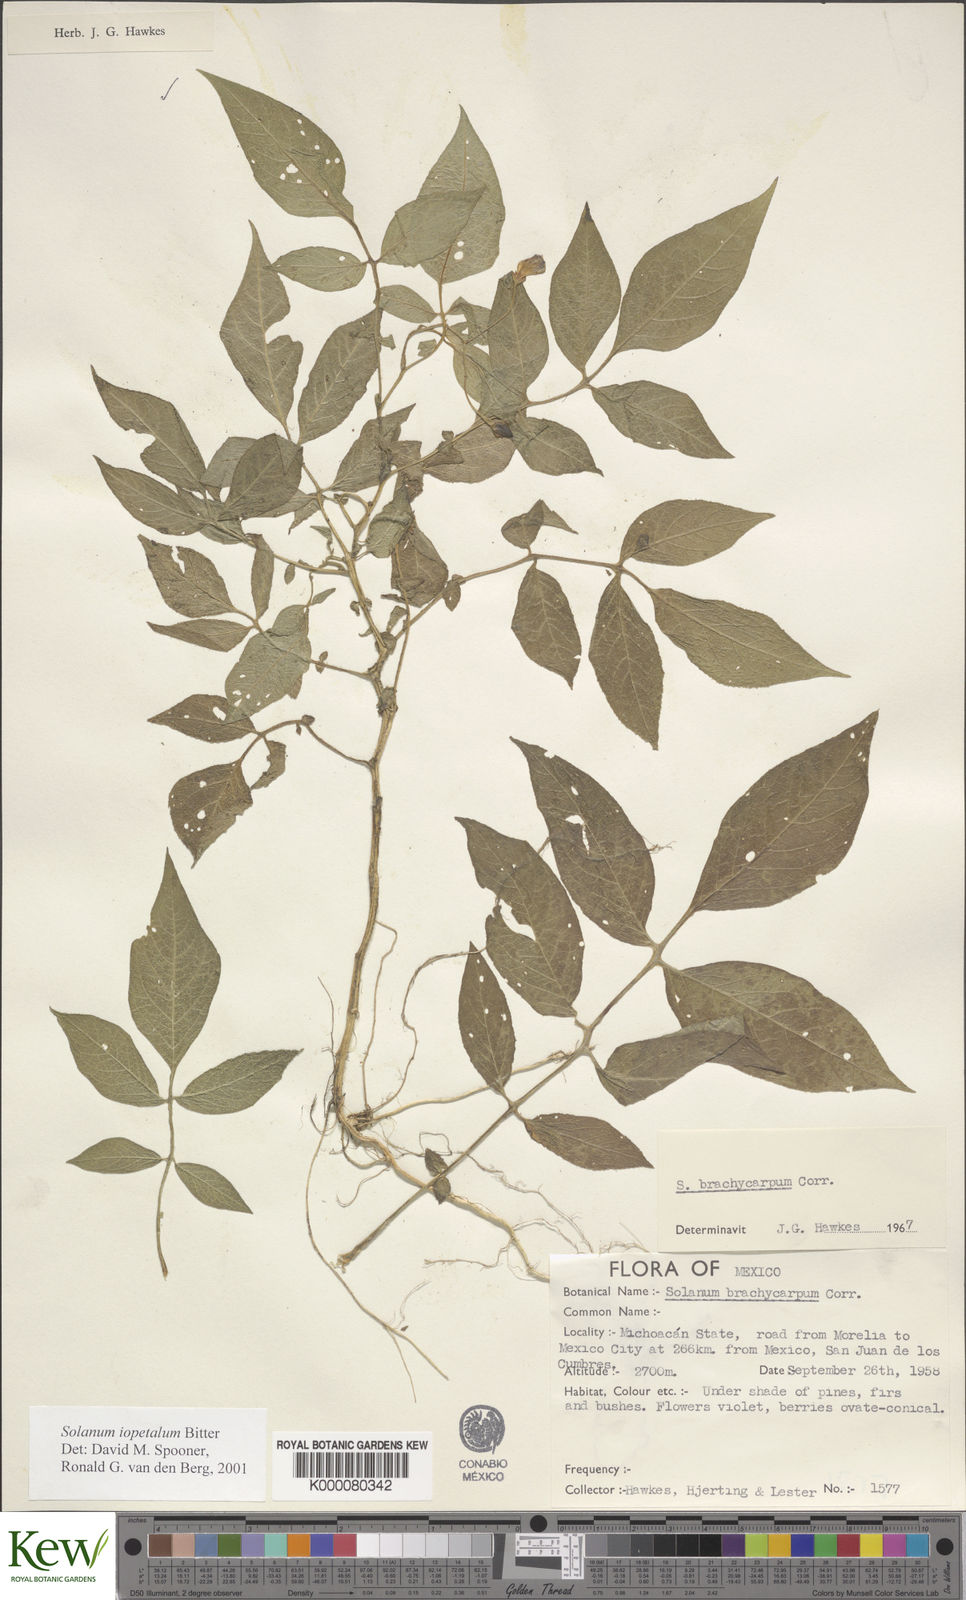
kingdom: Plantae
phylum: Tracheophyta
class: Magnoliopsida
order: Solanales
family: Solanaceae
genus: Solanum
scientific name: Solanum iopetalum
